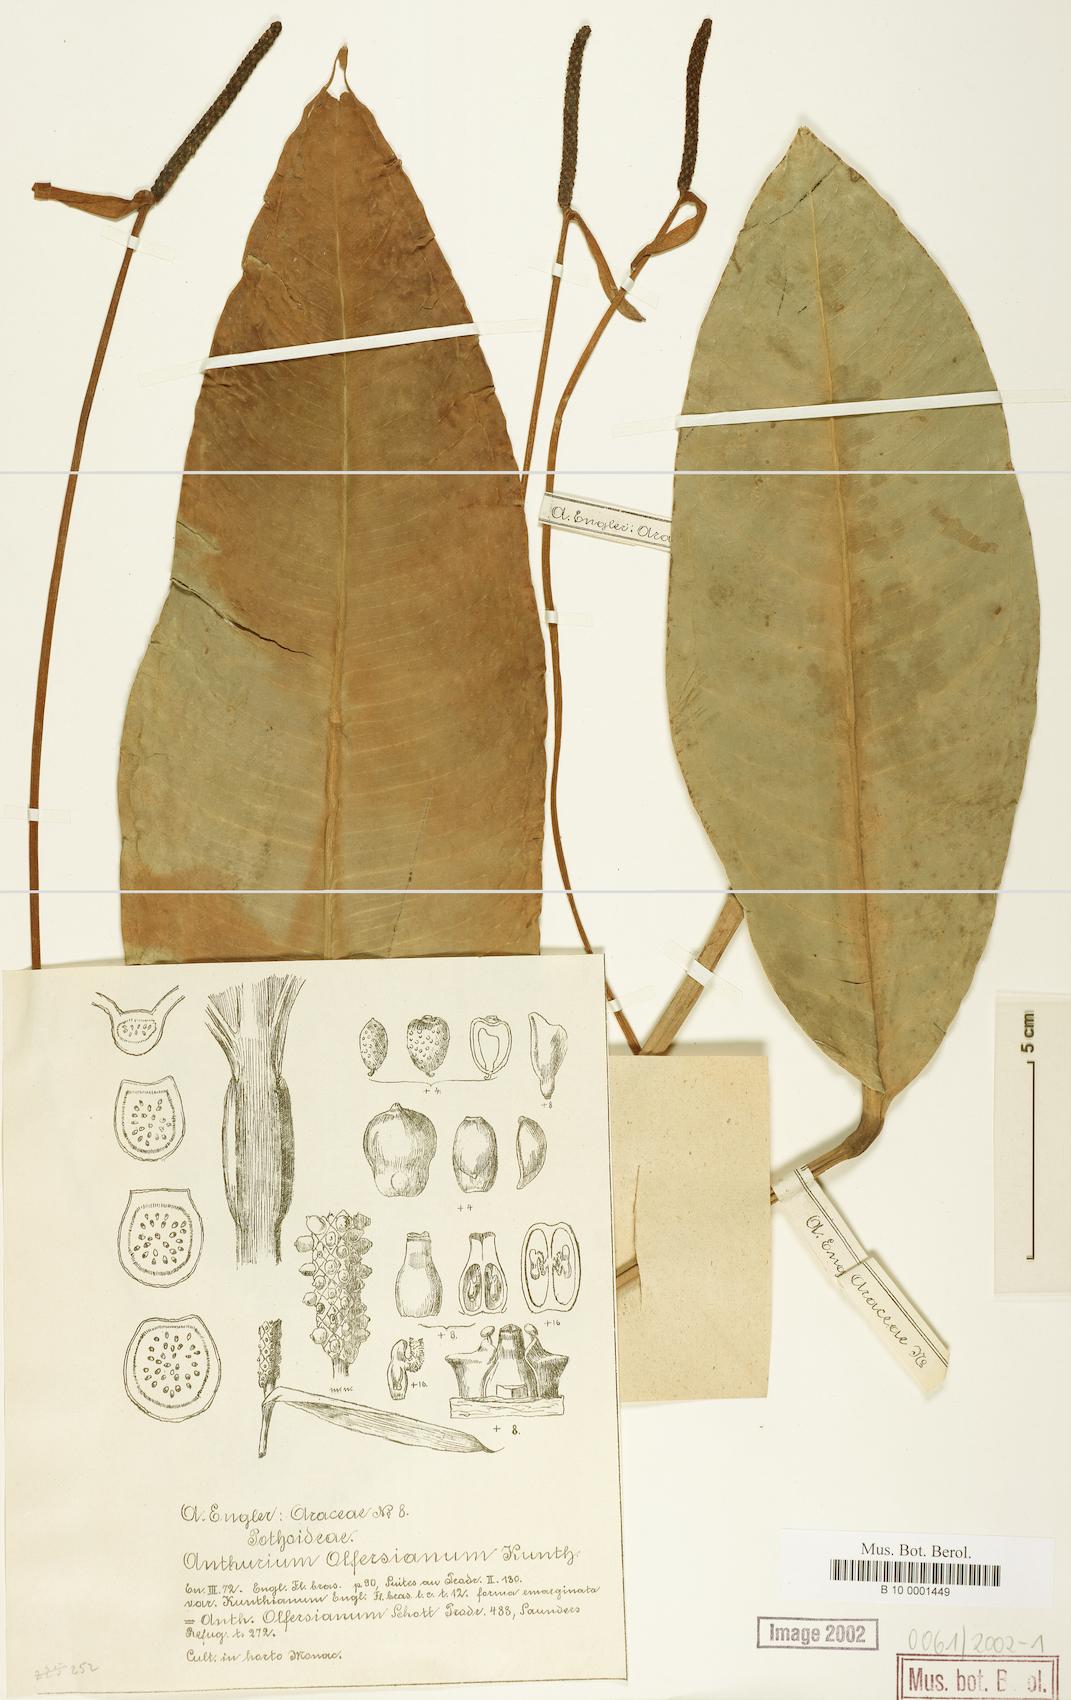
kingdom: Plantae
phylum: Tracheophyta
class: Liliopsida
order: Alismatales
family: Araceae
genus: Anthurium
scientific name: Anthurium parasiticum
